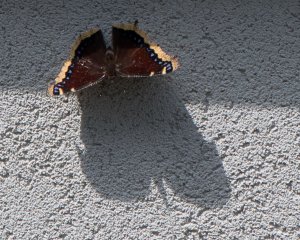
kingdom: Animalia
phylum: Arthropoda
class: Insecta
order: Lepidoptera
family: Nymphalidae
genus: Nymphalis
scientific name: Nymphalis antiopa
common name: Mourning Cloak
